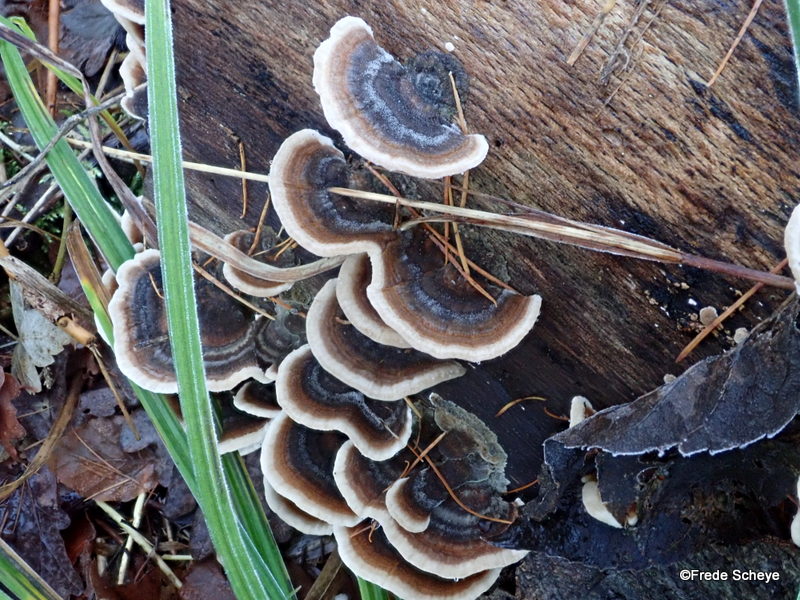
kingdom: Fungi
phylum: Basidiomycota
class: Agaricomycetes
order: Polyporales
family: Polyporaceae
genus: Trametes
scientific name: Trametes versicolor
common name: broget læderporesvamp
